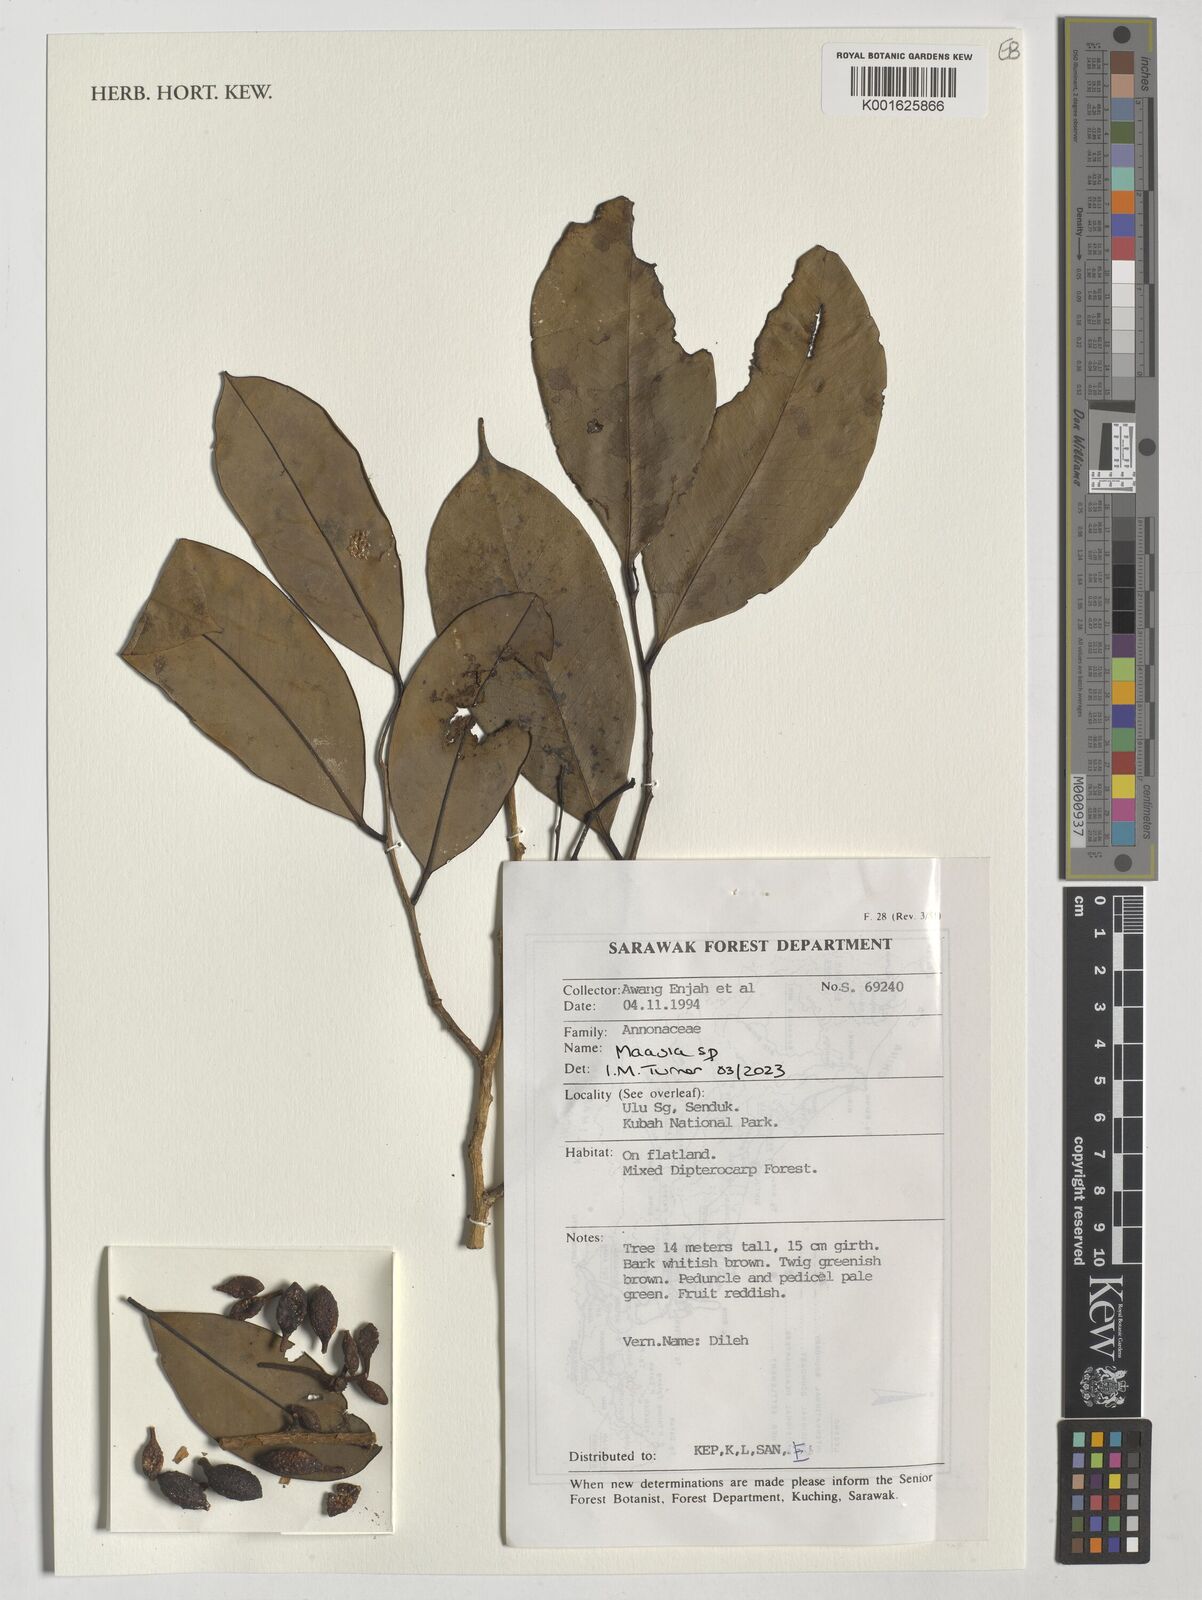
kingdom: Plantae
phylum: Tracheophyta
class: Magnoliopsida
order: Magnoliales
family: Annonaceae
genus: Maasia
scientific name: Maasia
